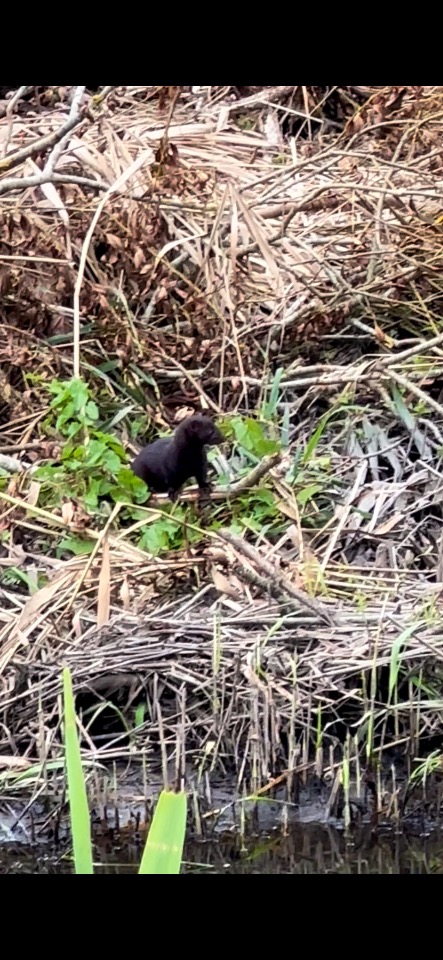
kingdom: Animalia
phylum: Chordata
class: Mammalia
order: Carnivora
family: Mustelidae
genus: Mustela
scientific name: Mustela vison
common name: Mink
